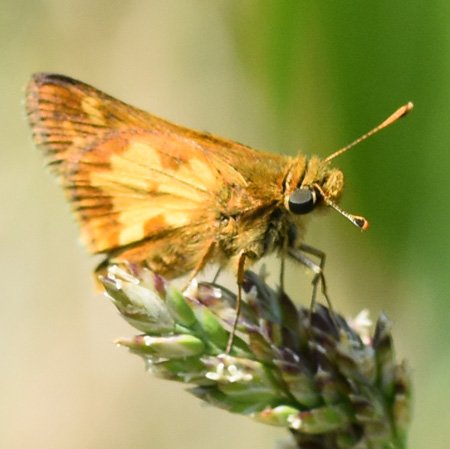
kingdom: Animalia
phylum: Arthropoda
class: Insecta
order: Lepidoptera
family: Hesperiidae
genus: Polites
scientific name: Polites coras
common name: Peck's Skipper
